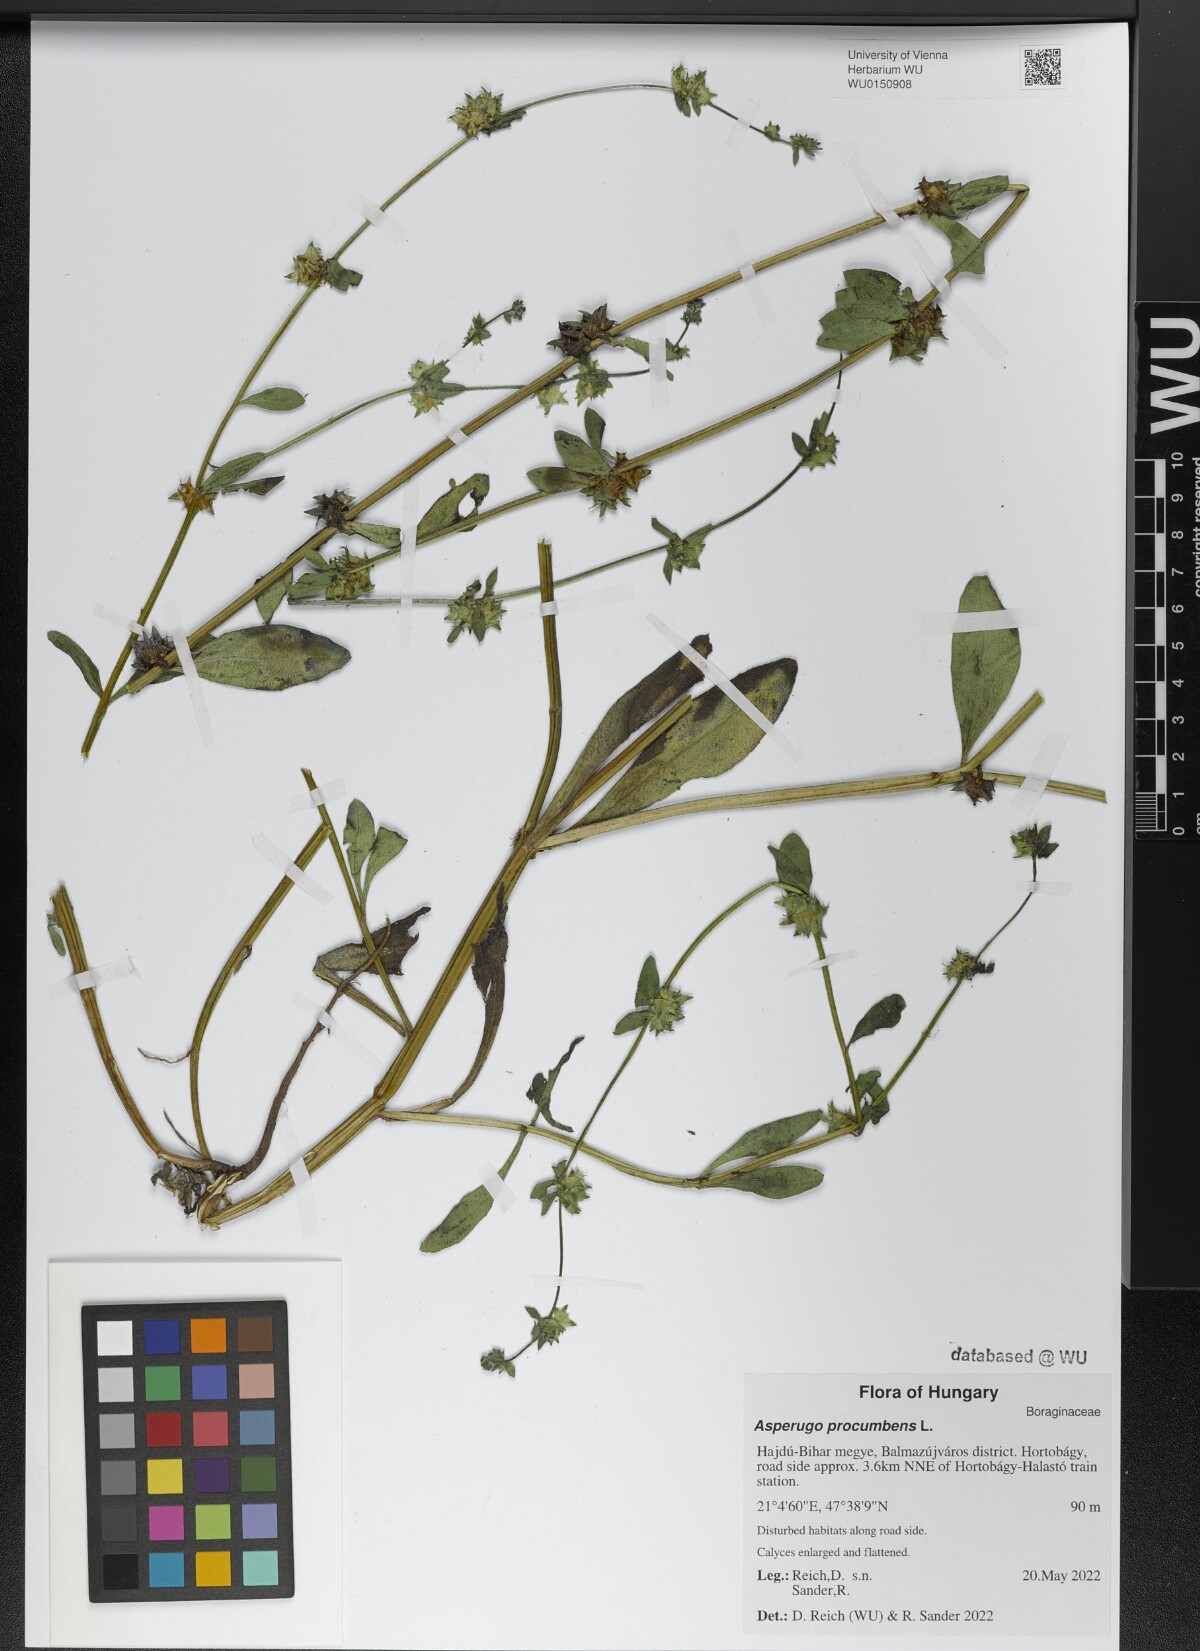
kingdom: Plantae
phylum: Tracheophyta
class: Magnoliopsida
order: Boraginales
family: Boraginaceae
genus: Asperugo
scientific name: Asperugo procumbens
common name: Madwort
